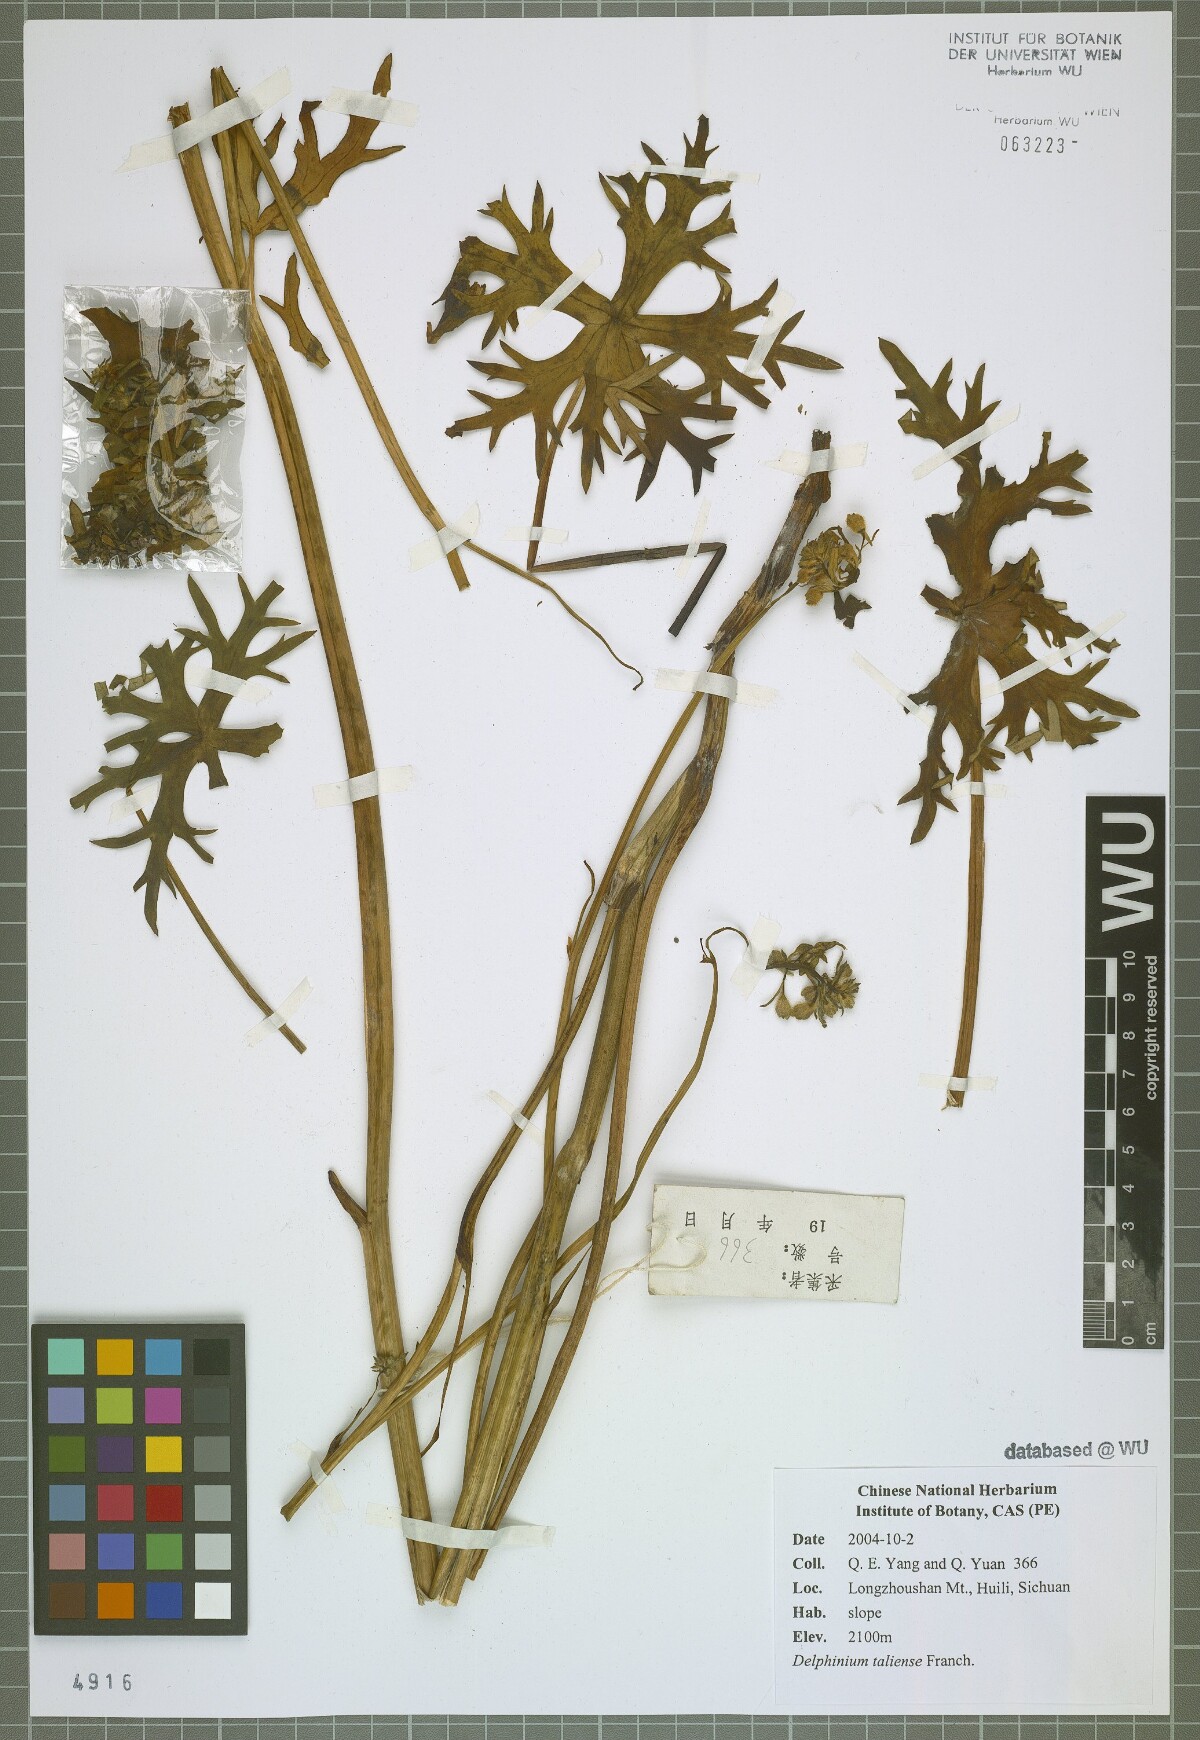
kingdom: Plantae
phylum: Tracheophyta
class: Magnoliopsida
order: Ranunculales
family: Ranunculaceae
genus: Delphinium
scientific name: Delphinium taliense
